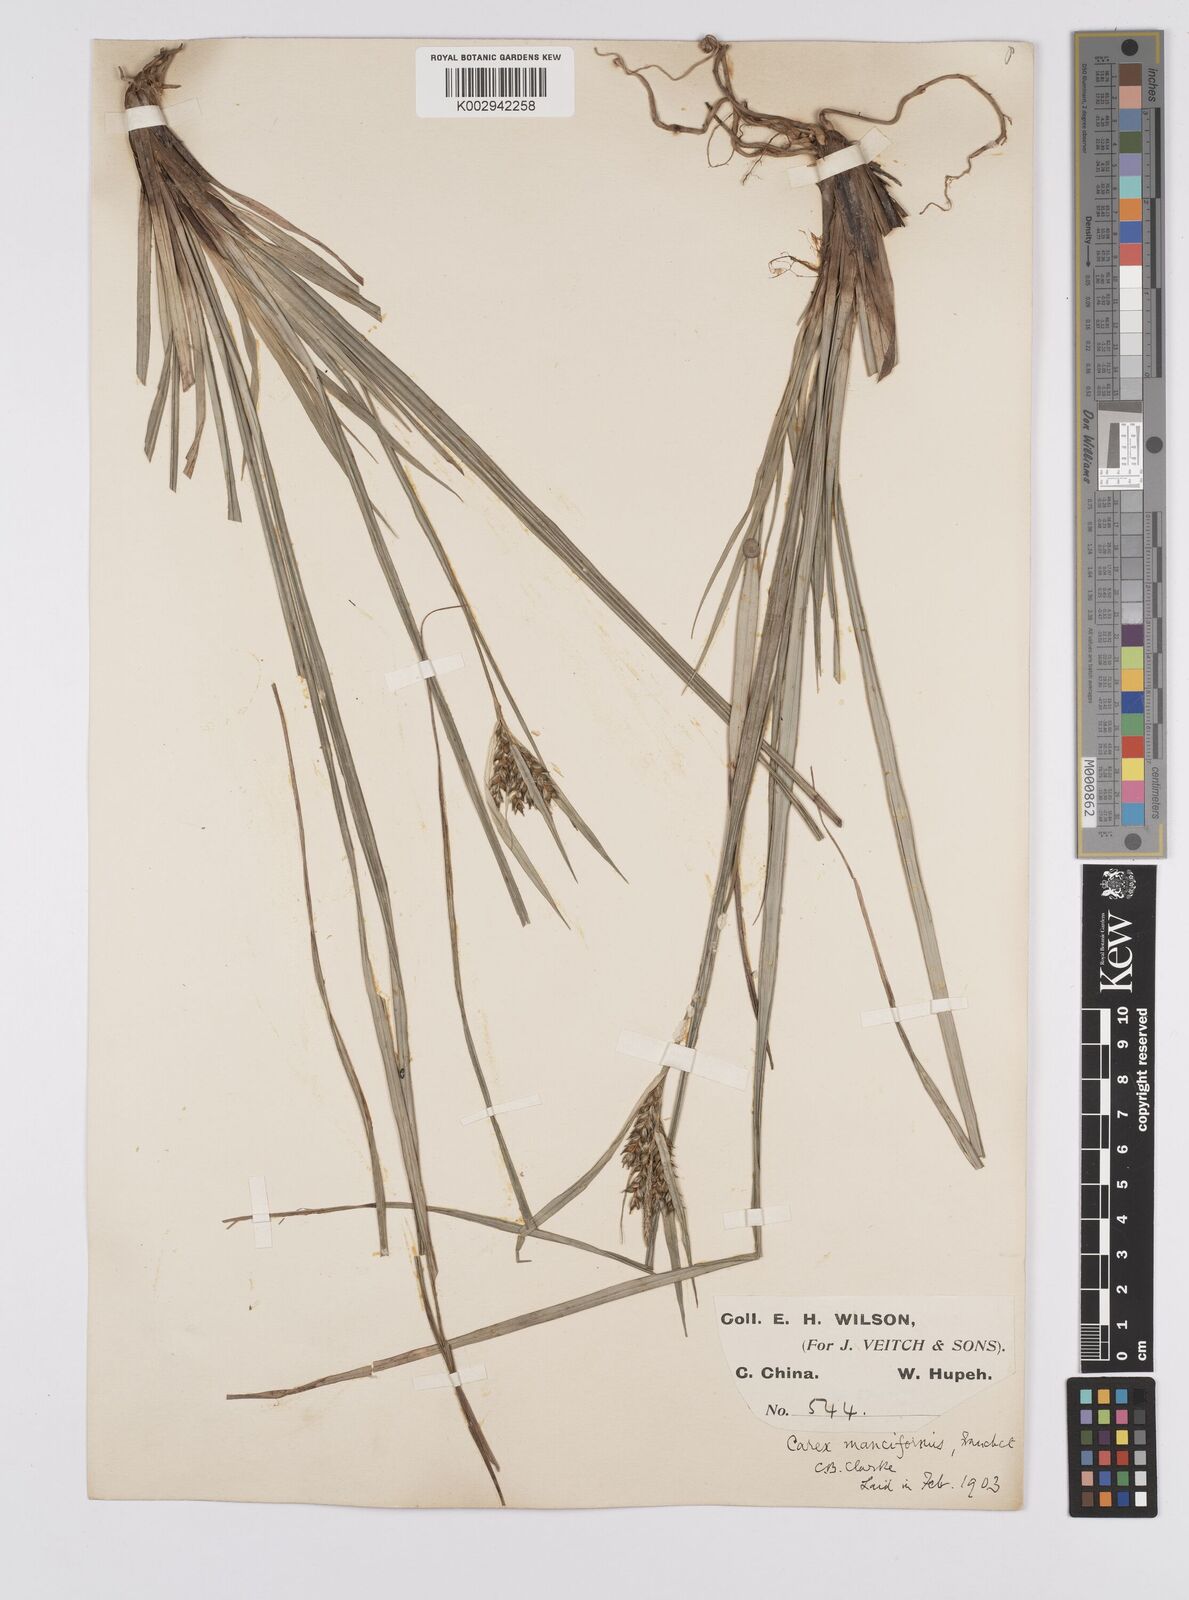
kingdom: Plantae
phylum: Tracheophyta
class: Liliopsida
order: Poales
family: Cyperaceae
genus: Carex
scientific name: Carex manciformis
